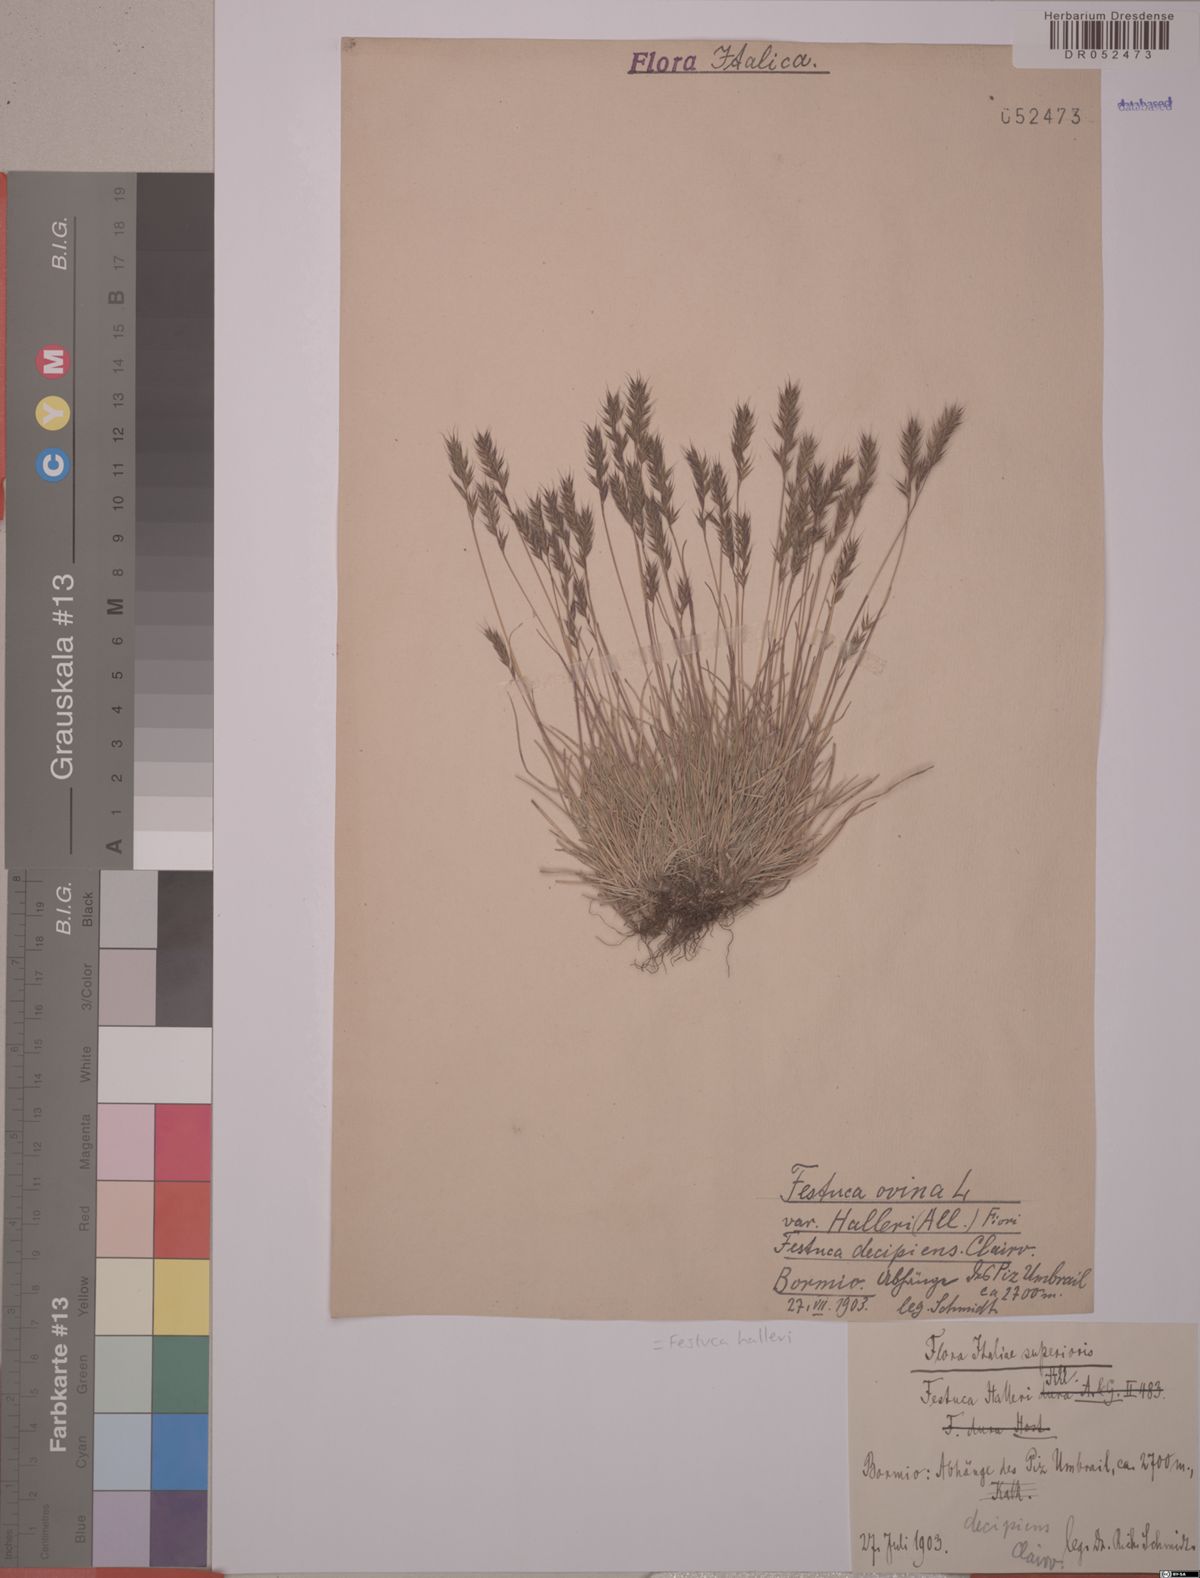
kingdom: Plantae
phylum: Tracheophyta
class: Liliopsida
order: Poales
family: Poaceae
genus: Festuca
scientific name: Festuca halleri
